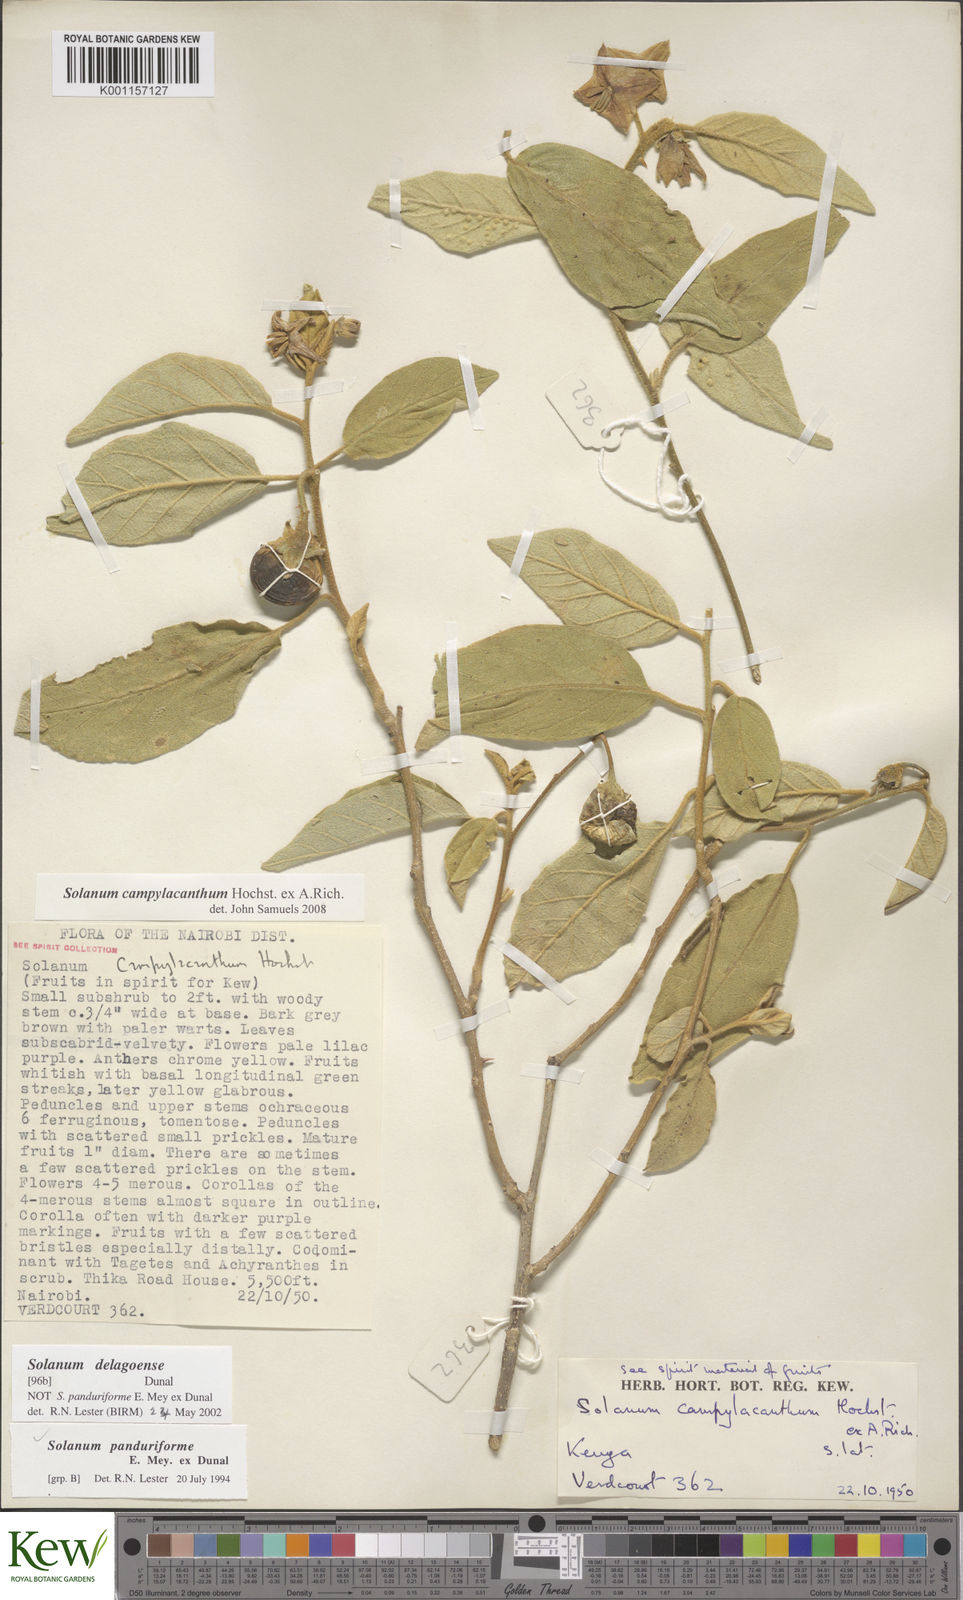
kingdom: Plantae
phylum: Tracheophyta
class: Magnoliopsida
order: Solanales
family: Solanaceae
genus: Solanum
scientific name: Solanum campylacanthum
